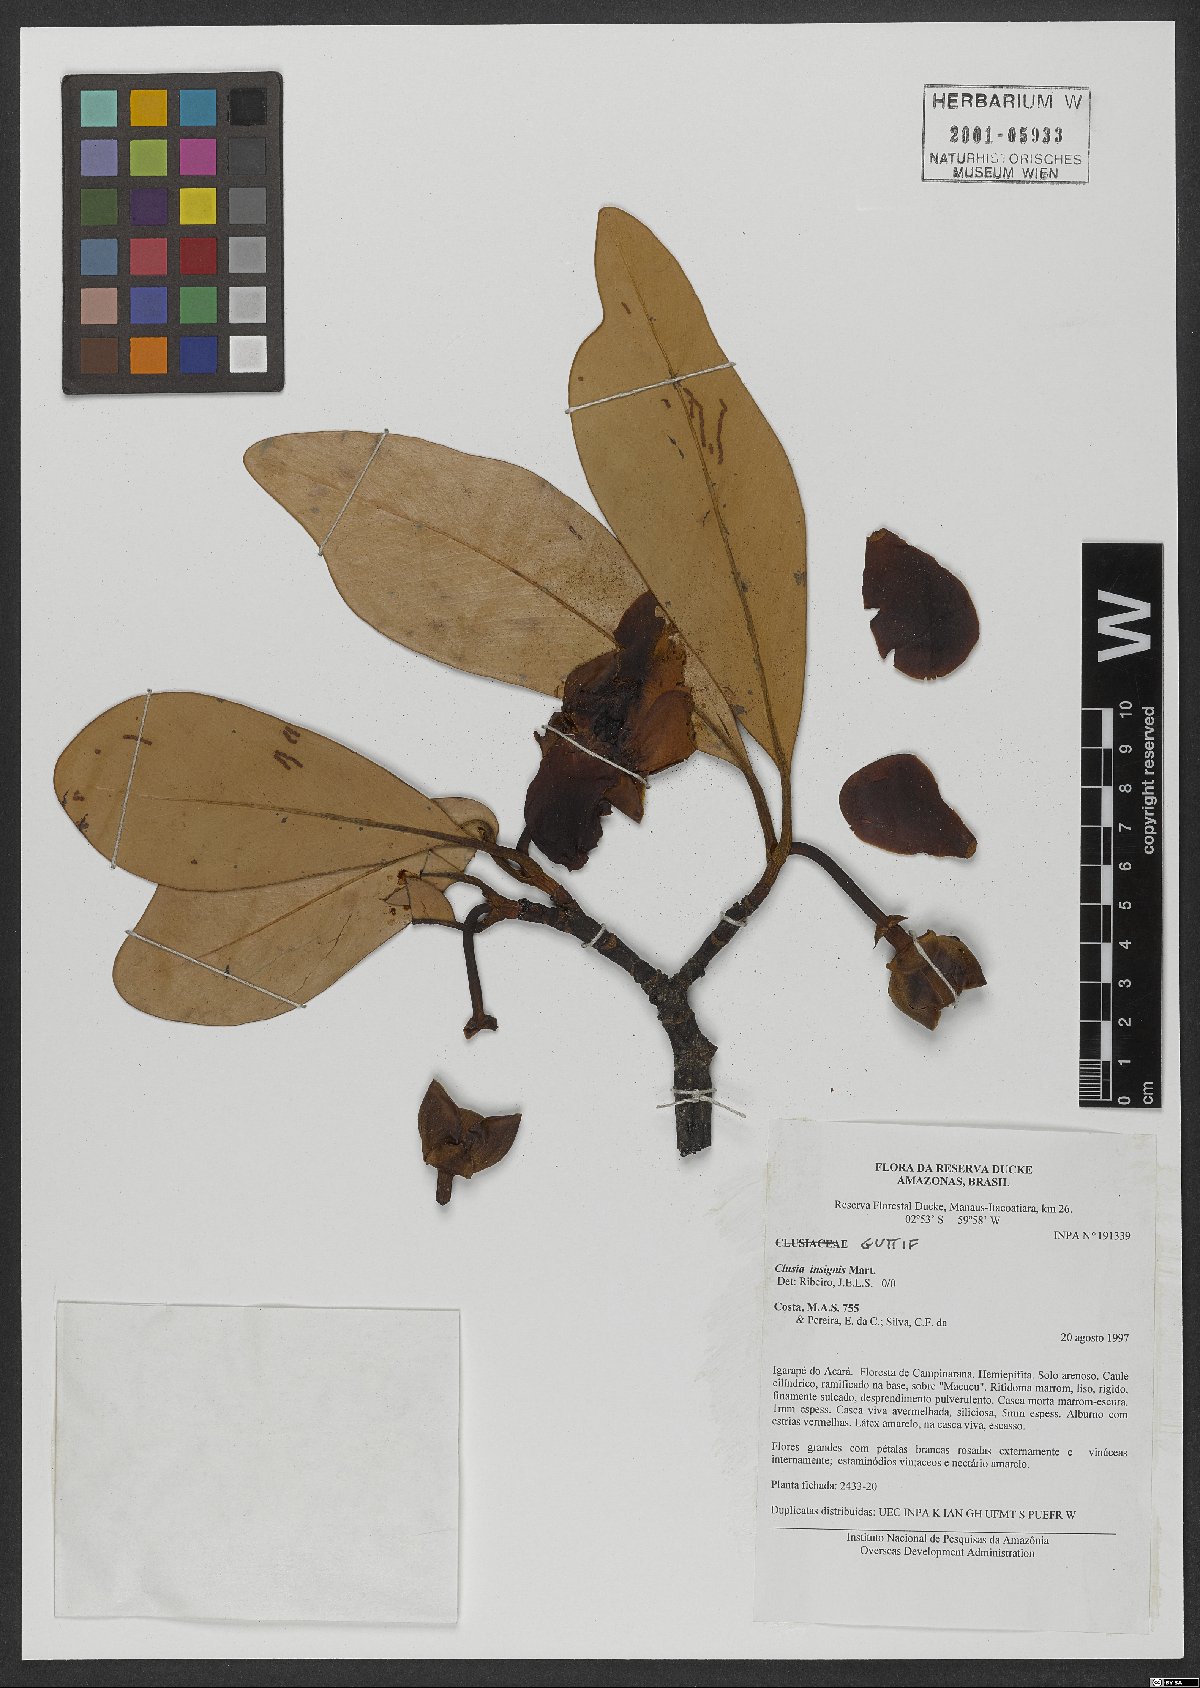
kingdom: Plantae
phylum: Tracheophyta
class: Magnoliopsida
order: Malpighiales
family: Clusiaceae
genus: Clusia
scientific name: Clusia insignis
